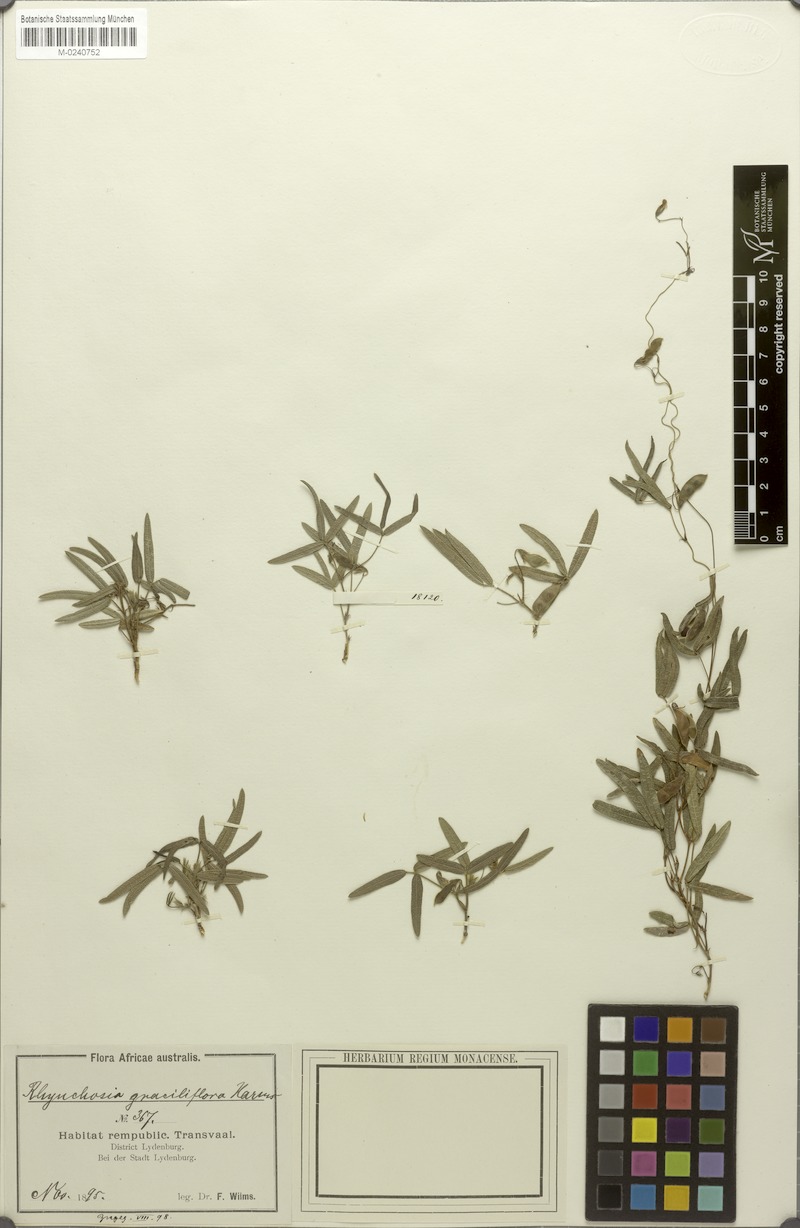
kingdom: Plantae
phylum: Tracheophyta
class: Magnoliopsida
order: Fabales
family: Fabaceae
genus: Rhynchosia
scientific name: Rhynchosia totta
